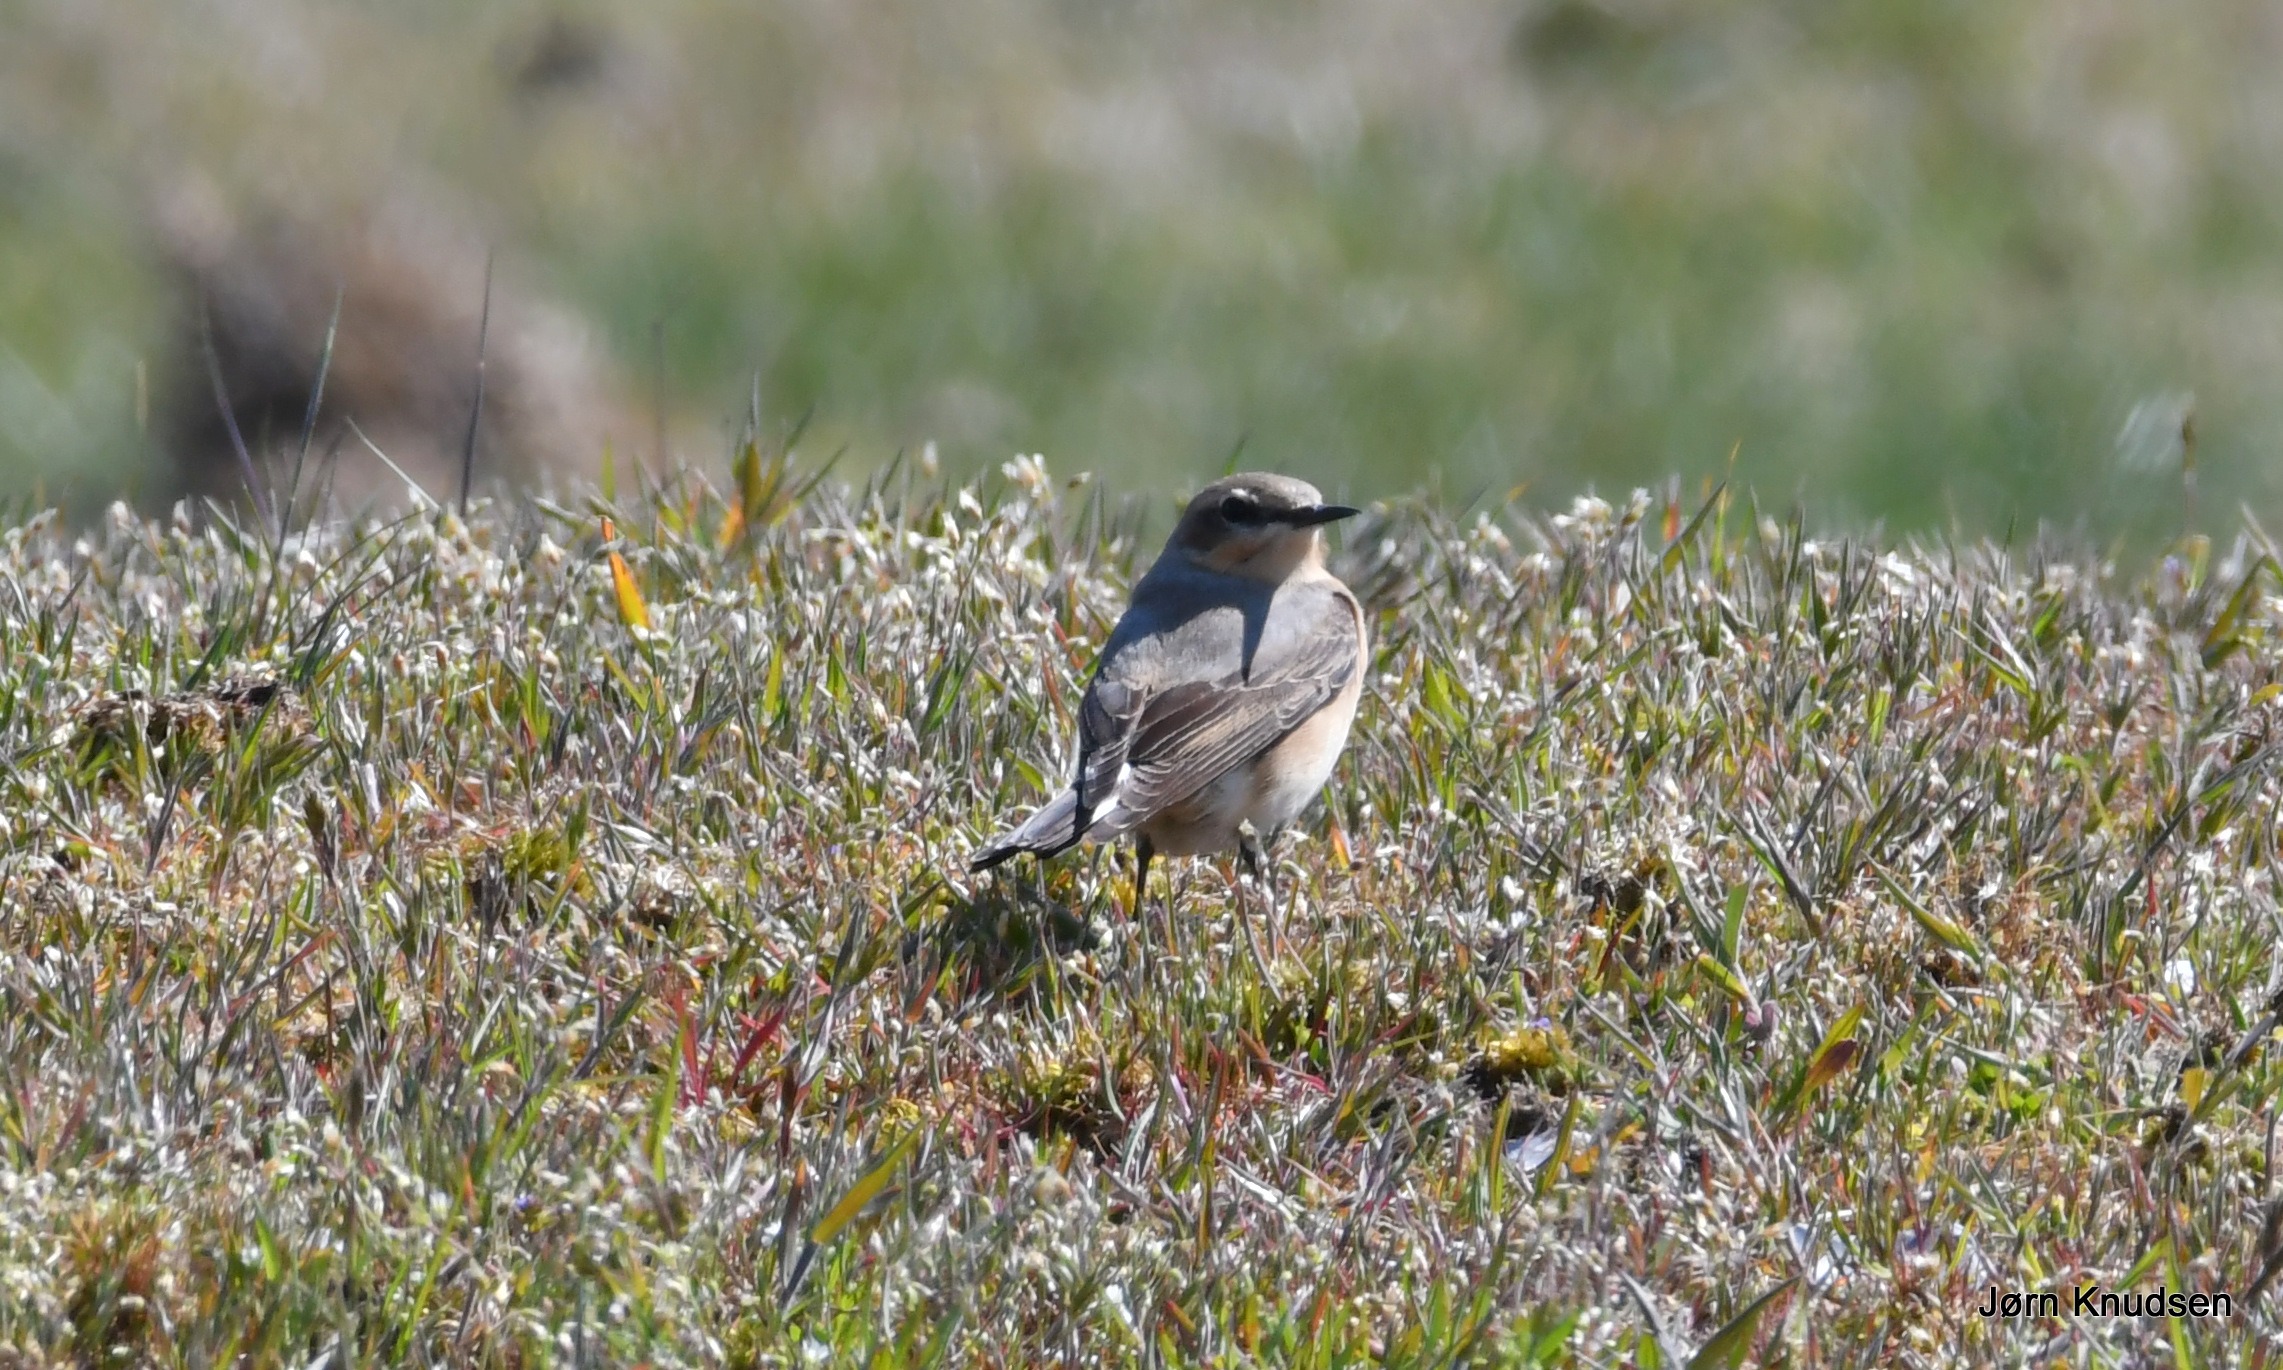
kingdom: Animalia
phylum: Chordata
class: Aves
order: Passeriformes
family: Muscicapidae
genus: Oenanthe
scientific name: Oenanthe oenanthe
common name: Stenpikker
